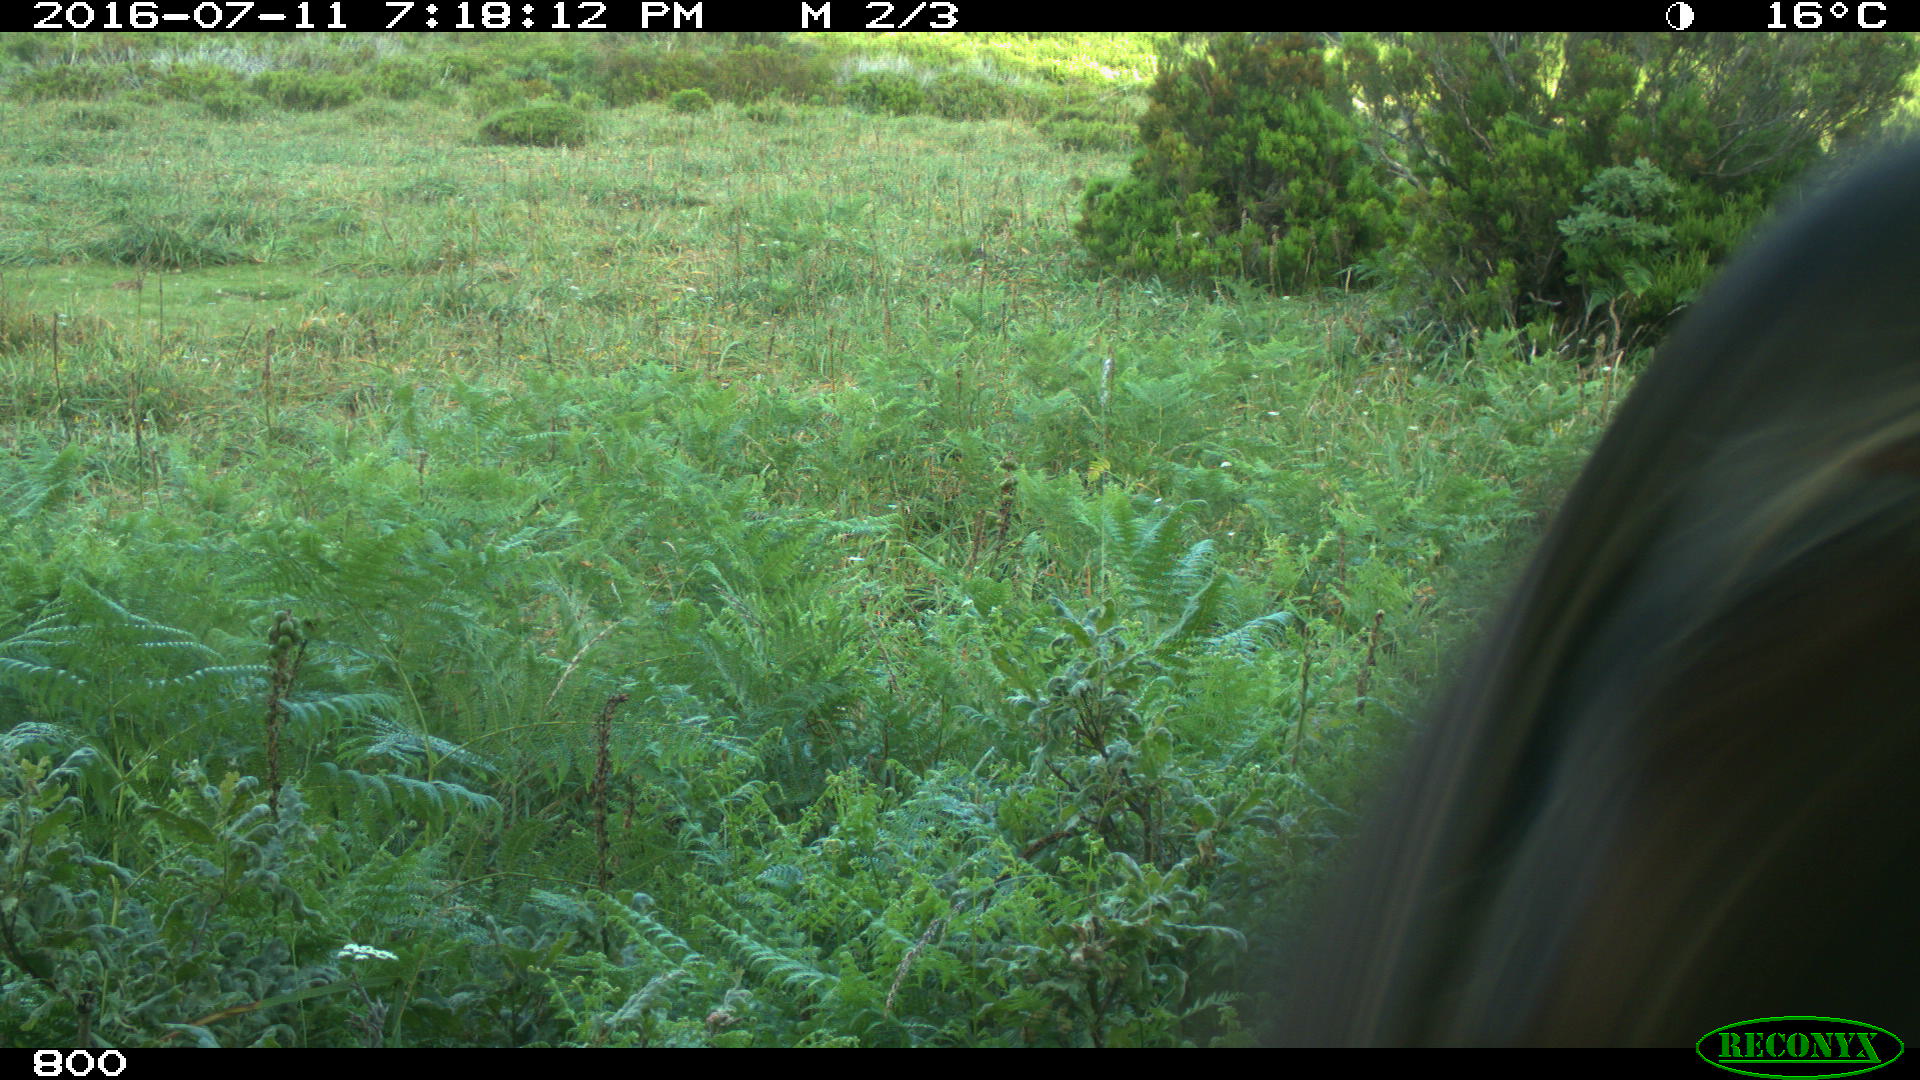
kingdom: Animalia
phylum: Chordata
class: Mammalia
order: Artiodactyla
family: Bovidae
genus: Bos
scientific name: Bos taurus
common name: Domesticated cattle
